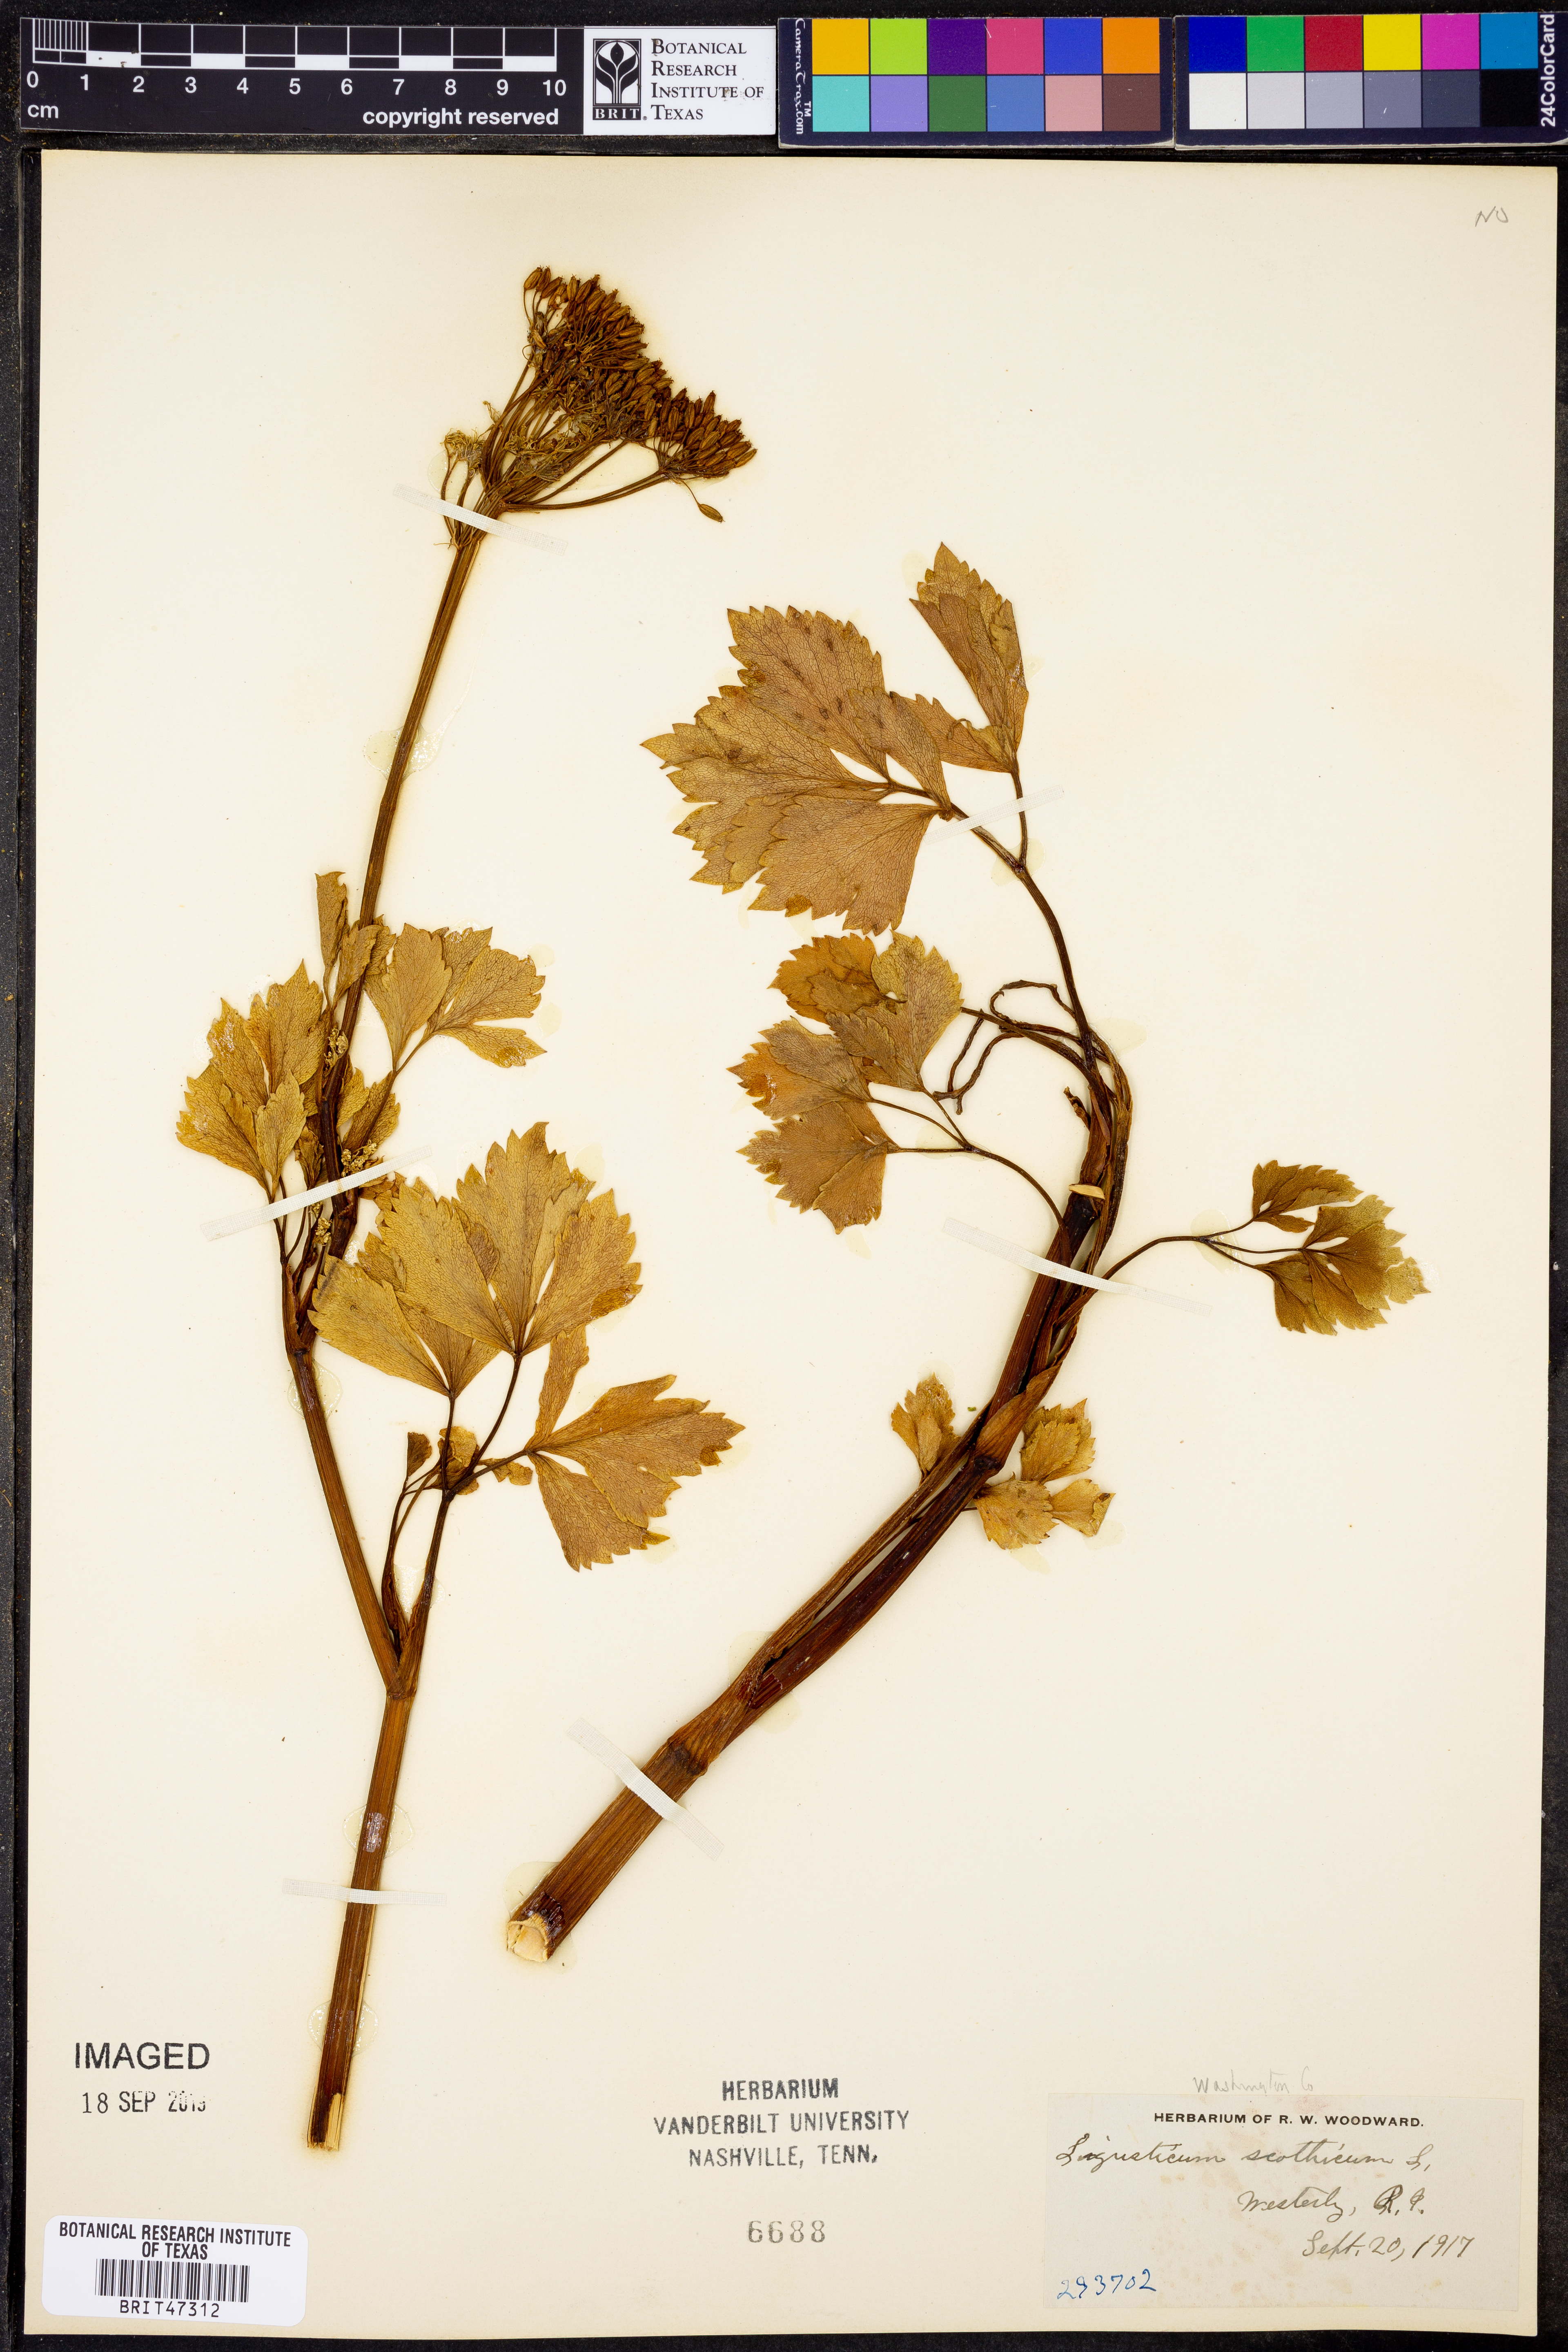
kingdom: Plantae
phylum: Tracheophyta
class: Magnoliopsida
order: Apiales
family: Apiaceae
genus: Ligusticum
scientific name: Ligusticum scothicum
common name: Beach lovage
